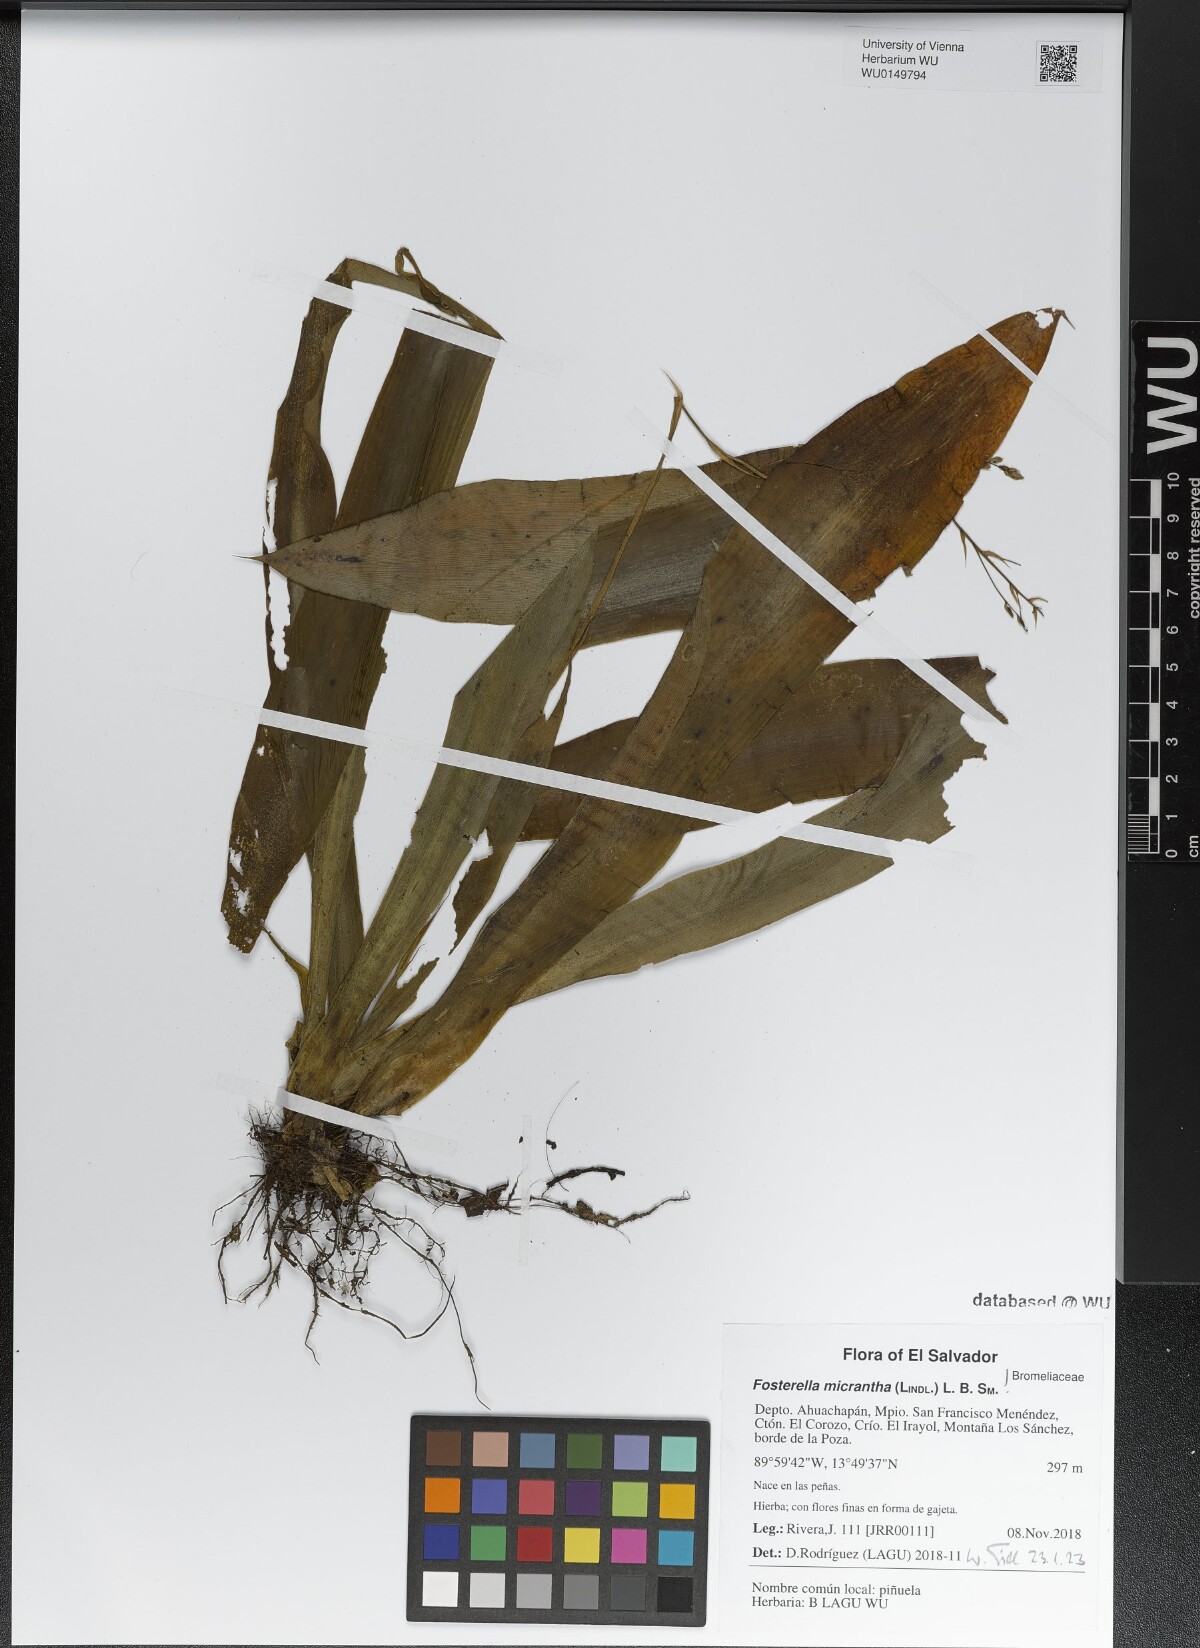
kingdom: Plantae
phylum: Tracheophyta
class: Liliopsida
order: Poales
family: Bromeliaceae
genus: Fosterella
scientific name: Fosterella micrantha
